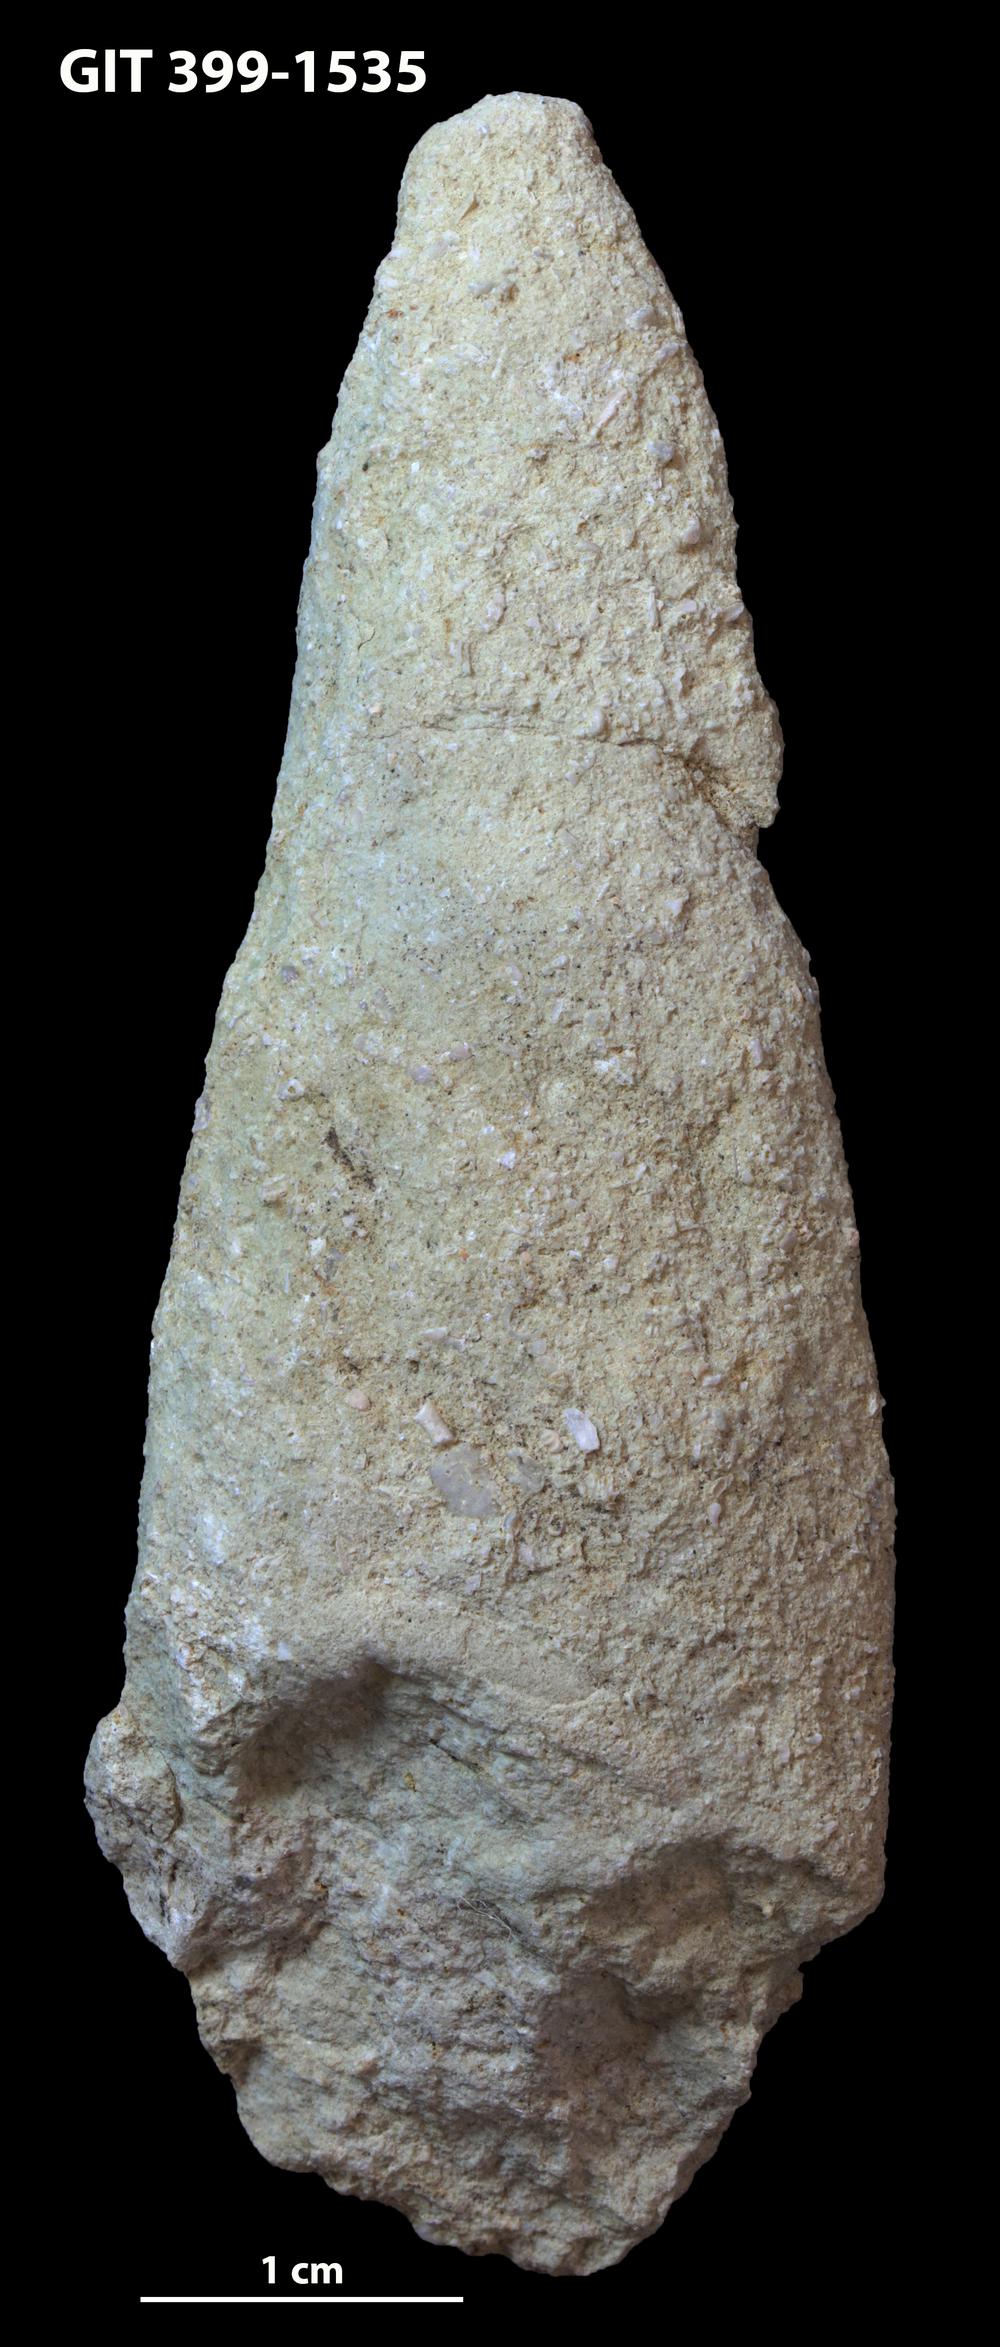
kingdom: Animalia
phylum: Annelida
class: Polychaeta
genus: Hyolithes
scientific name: Hyolithes
